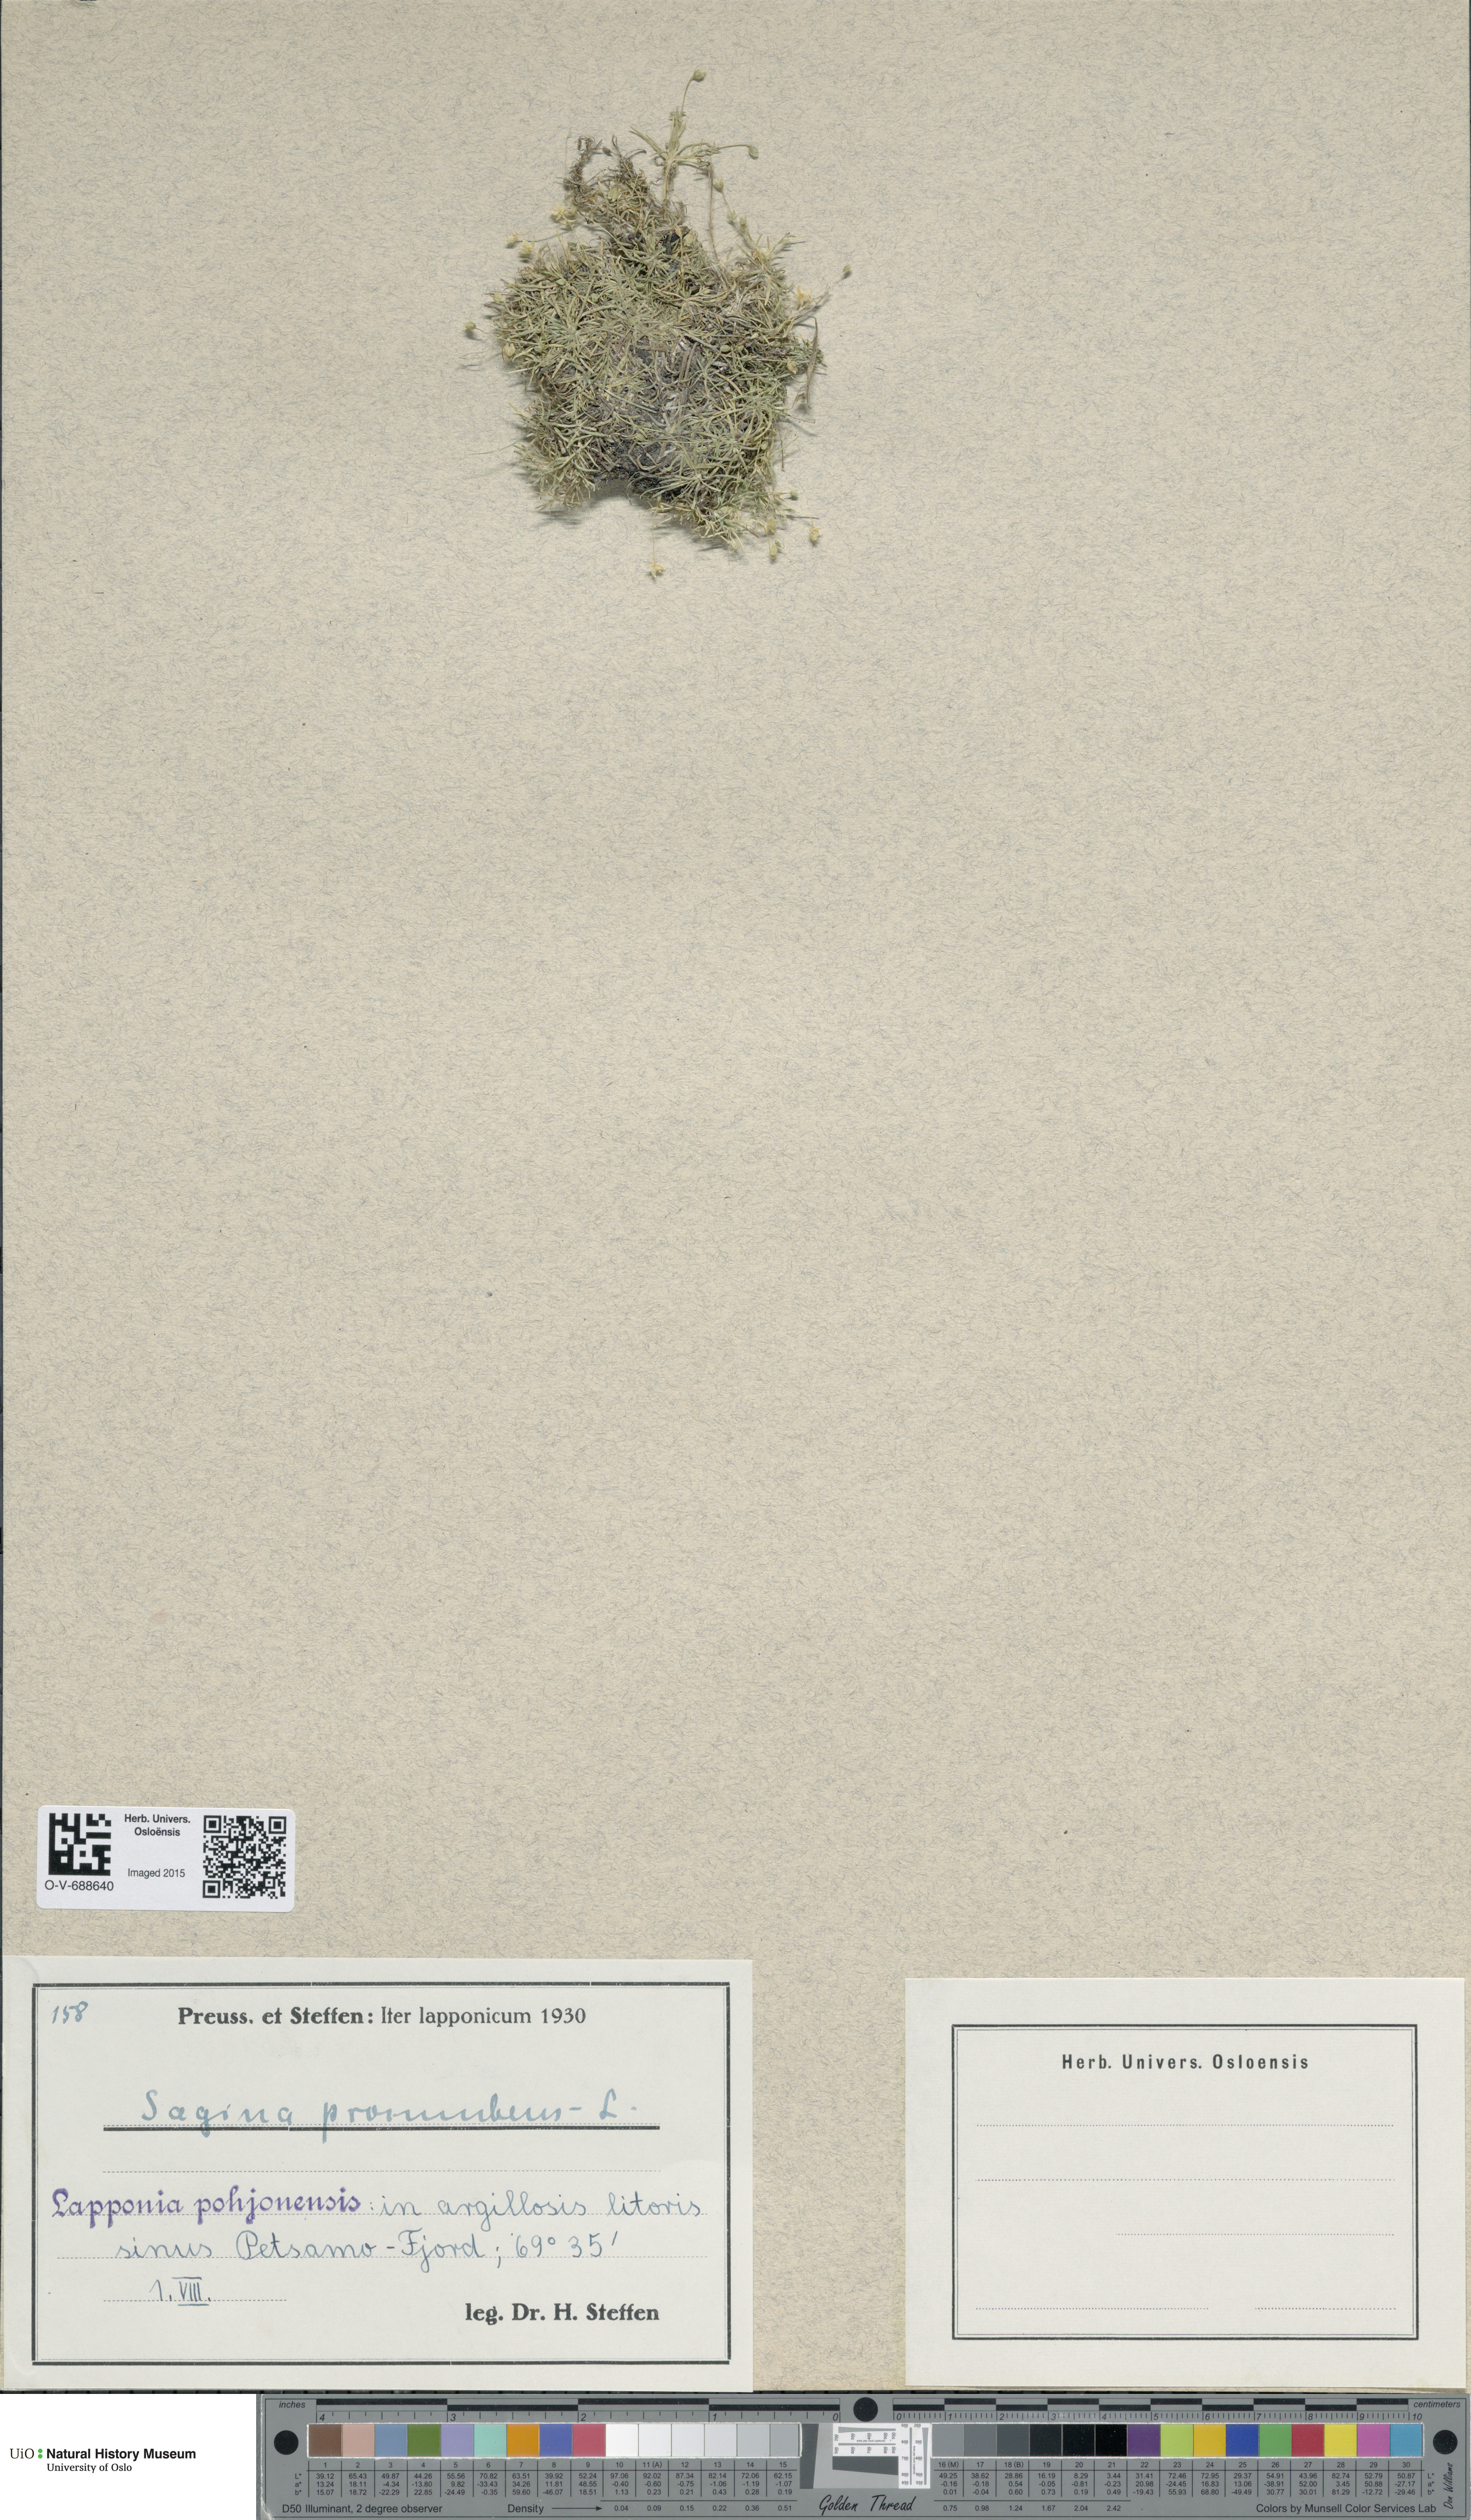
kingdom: Plantae
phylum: Tracheophyta
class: Magnoliopsida
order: Caryophyllales
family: Caryophyllaceae
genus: Sagina
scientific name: Sagina procumbens
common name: Procumbent pearlwort
